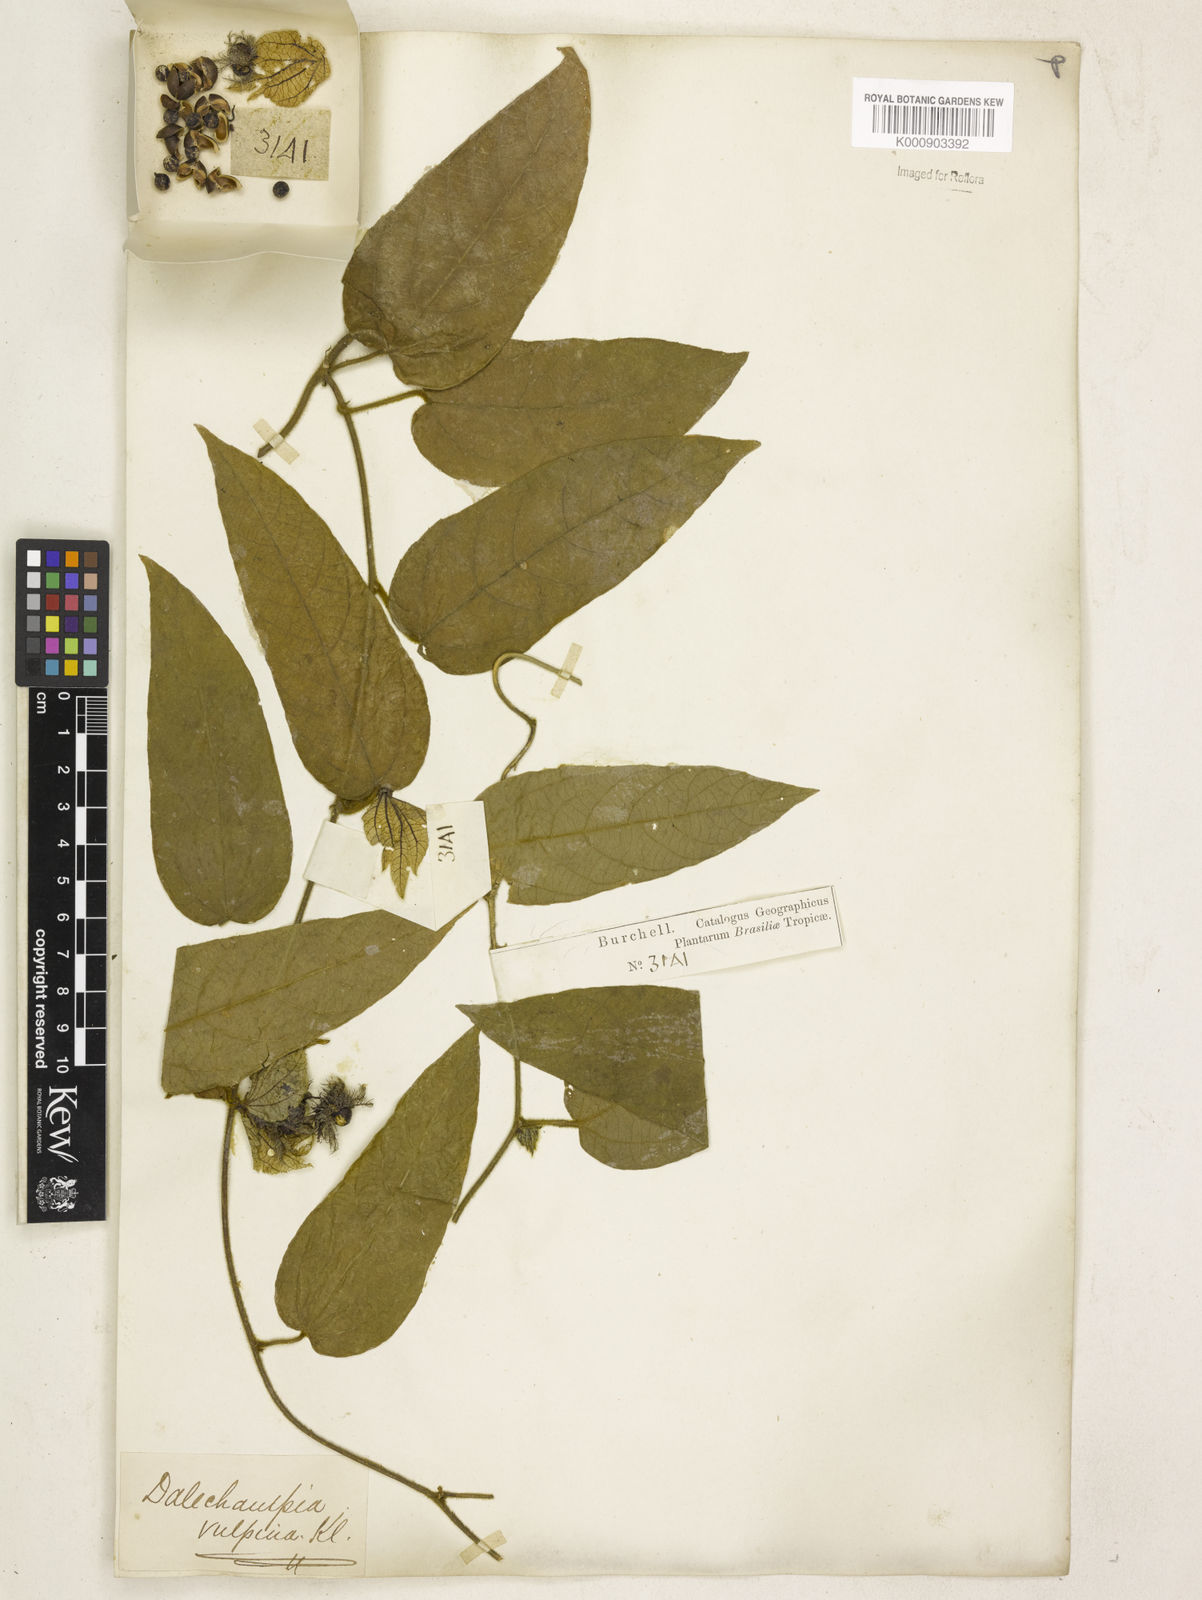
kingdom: Plantae
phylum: Tracheophyta
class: Magnoliopsida
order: Malpighiales
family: Euphorbiaceae
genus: Dalechampia
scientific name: Dalechampia leandrii
